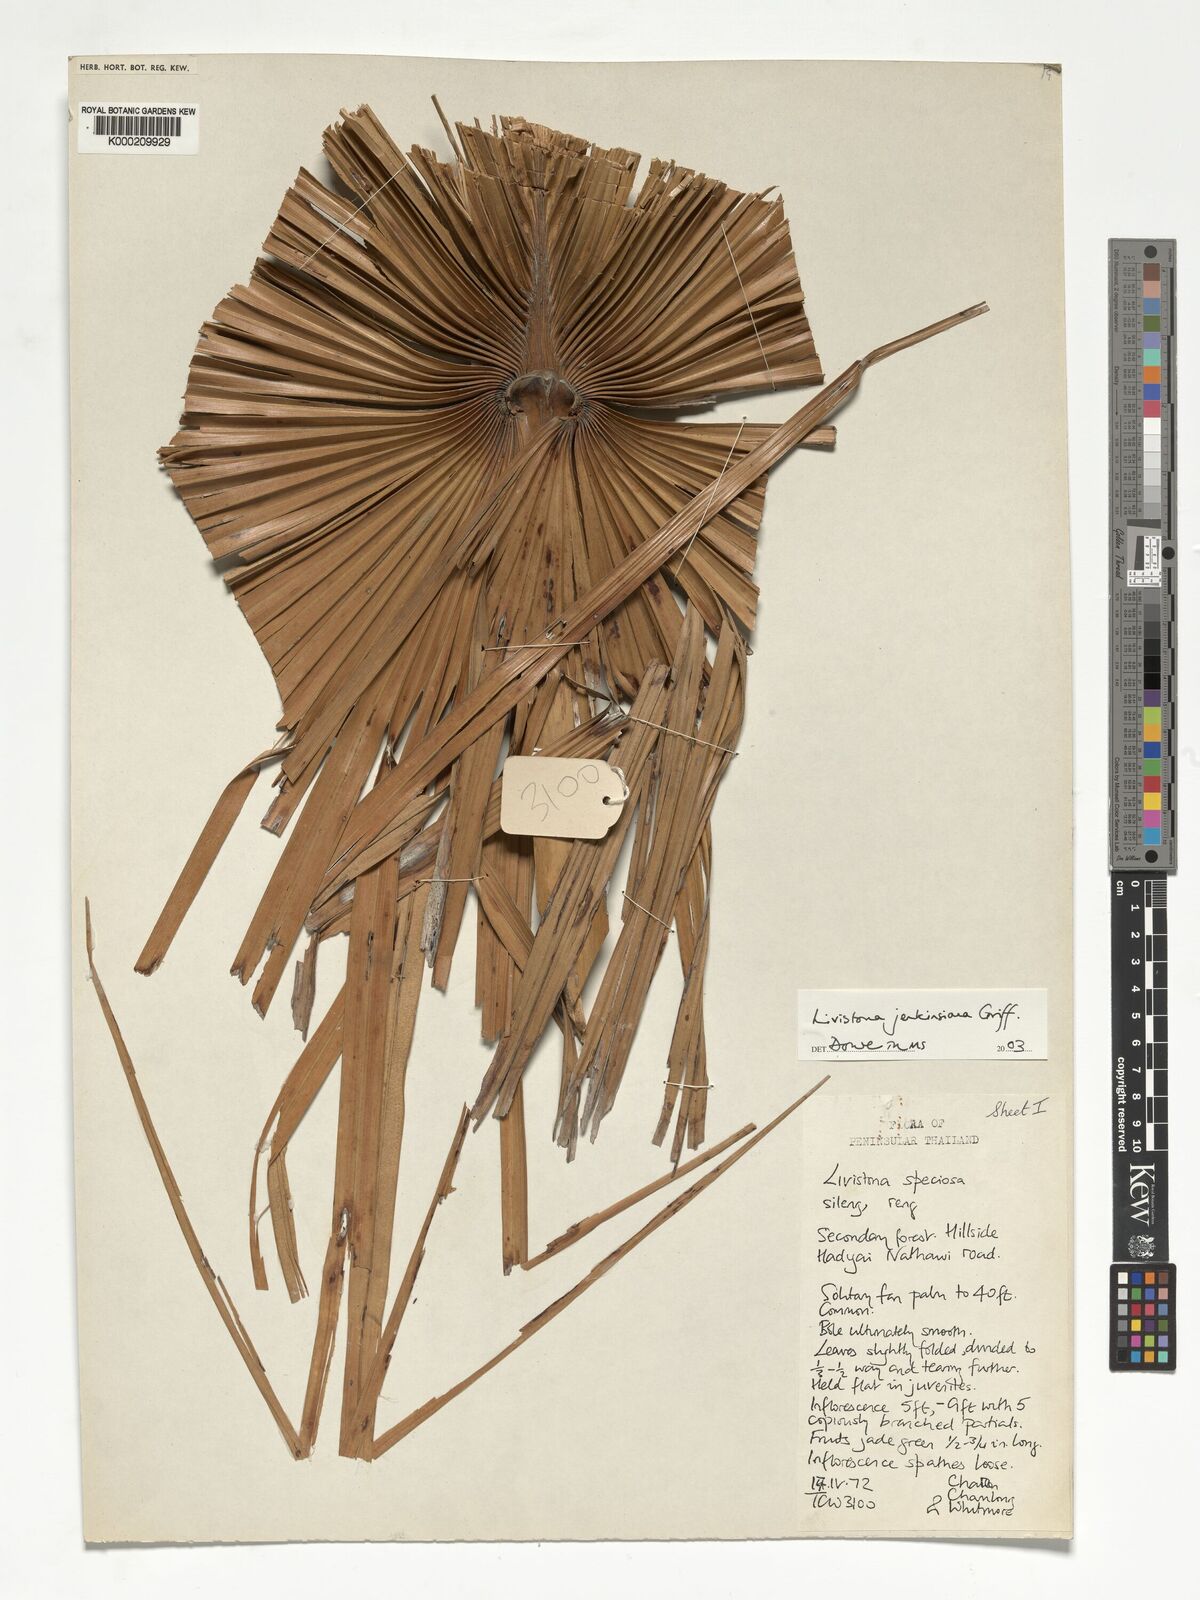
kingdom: Plantae
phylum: Tracheophyta
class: Liliopsida
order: Arecales
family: Arecaceae
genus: Livistona
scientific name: Livistona jenkinsiana
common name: Himalayan fan palm
